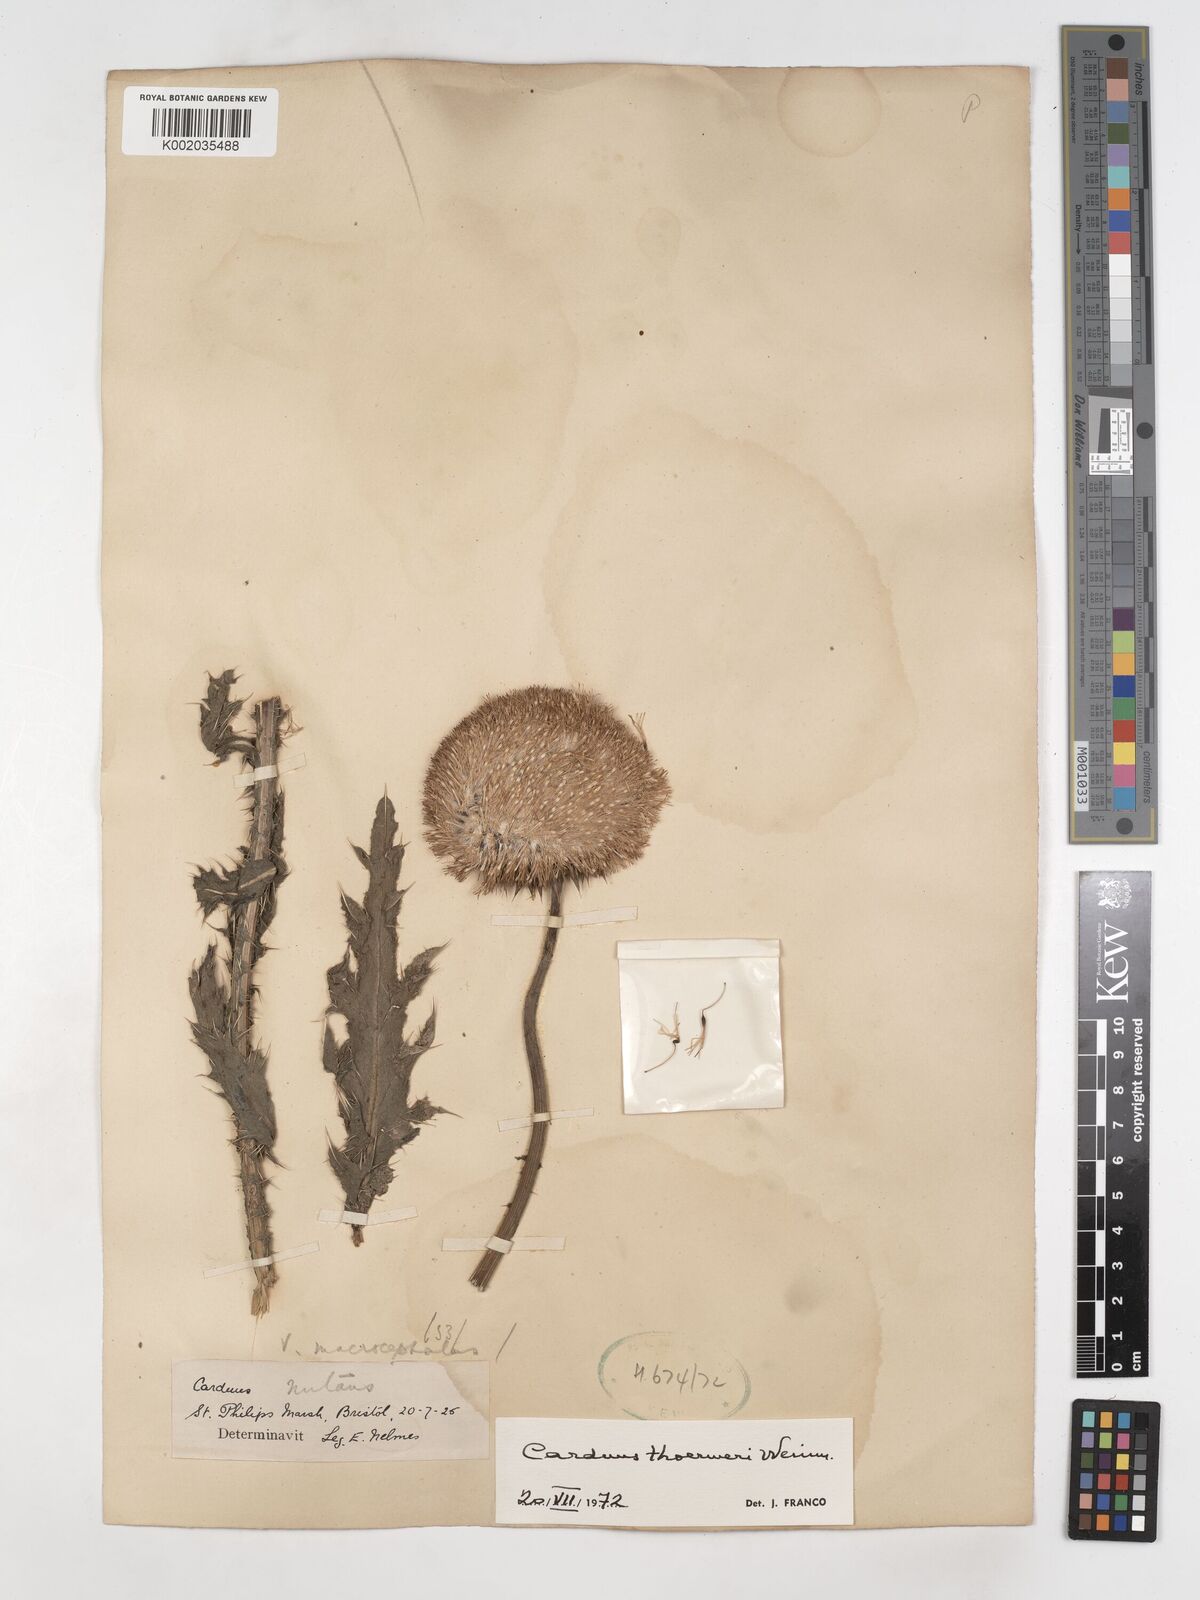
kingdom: Plantae
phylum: Tracheophyta
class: Magnoliopsida
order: Asterales
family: Asteraceae
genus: Carduus
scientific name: Carduus nutans
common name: Musk thistle
